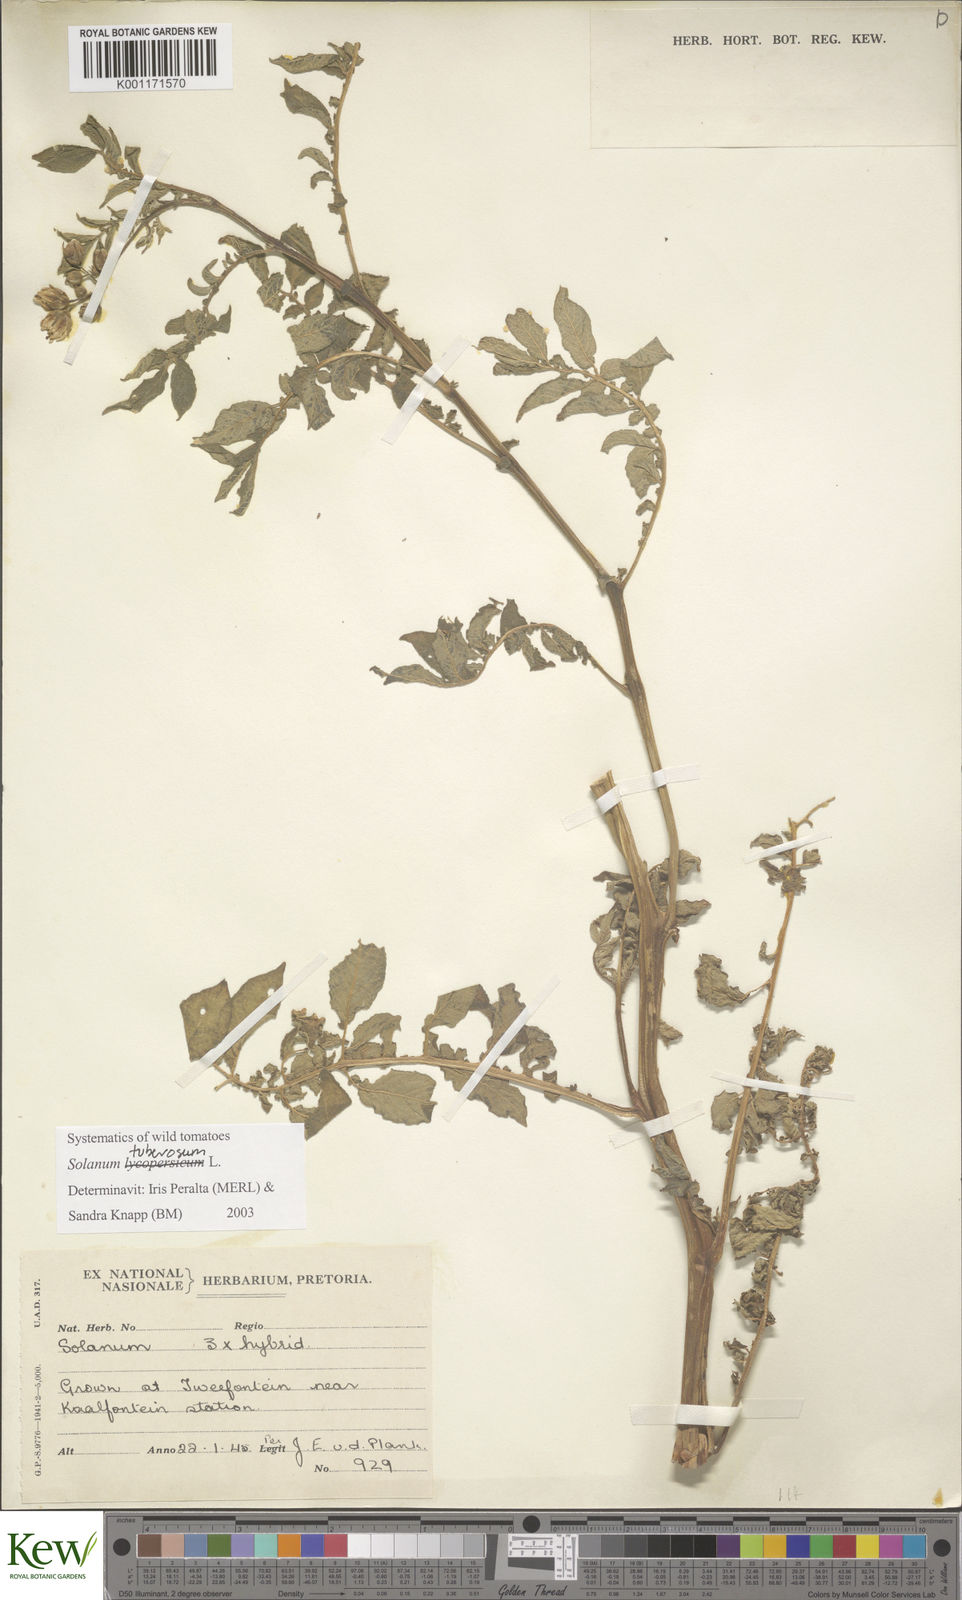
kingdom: Plantae
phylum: Tracheophyta
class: Magnoliopsida
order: Solanales
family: Solanaceae
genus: Solanum
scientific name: Solanum tuberosum
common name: Potato
